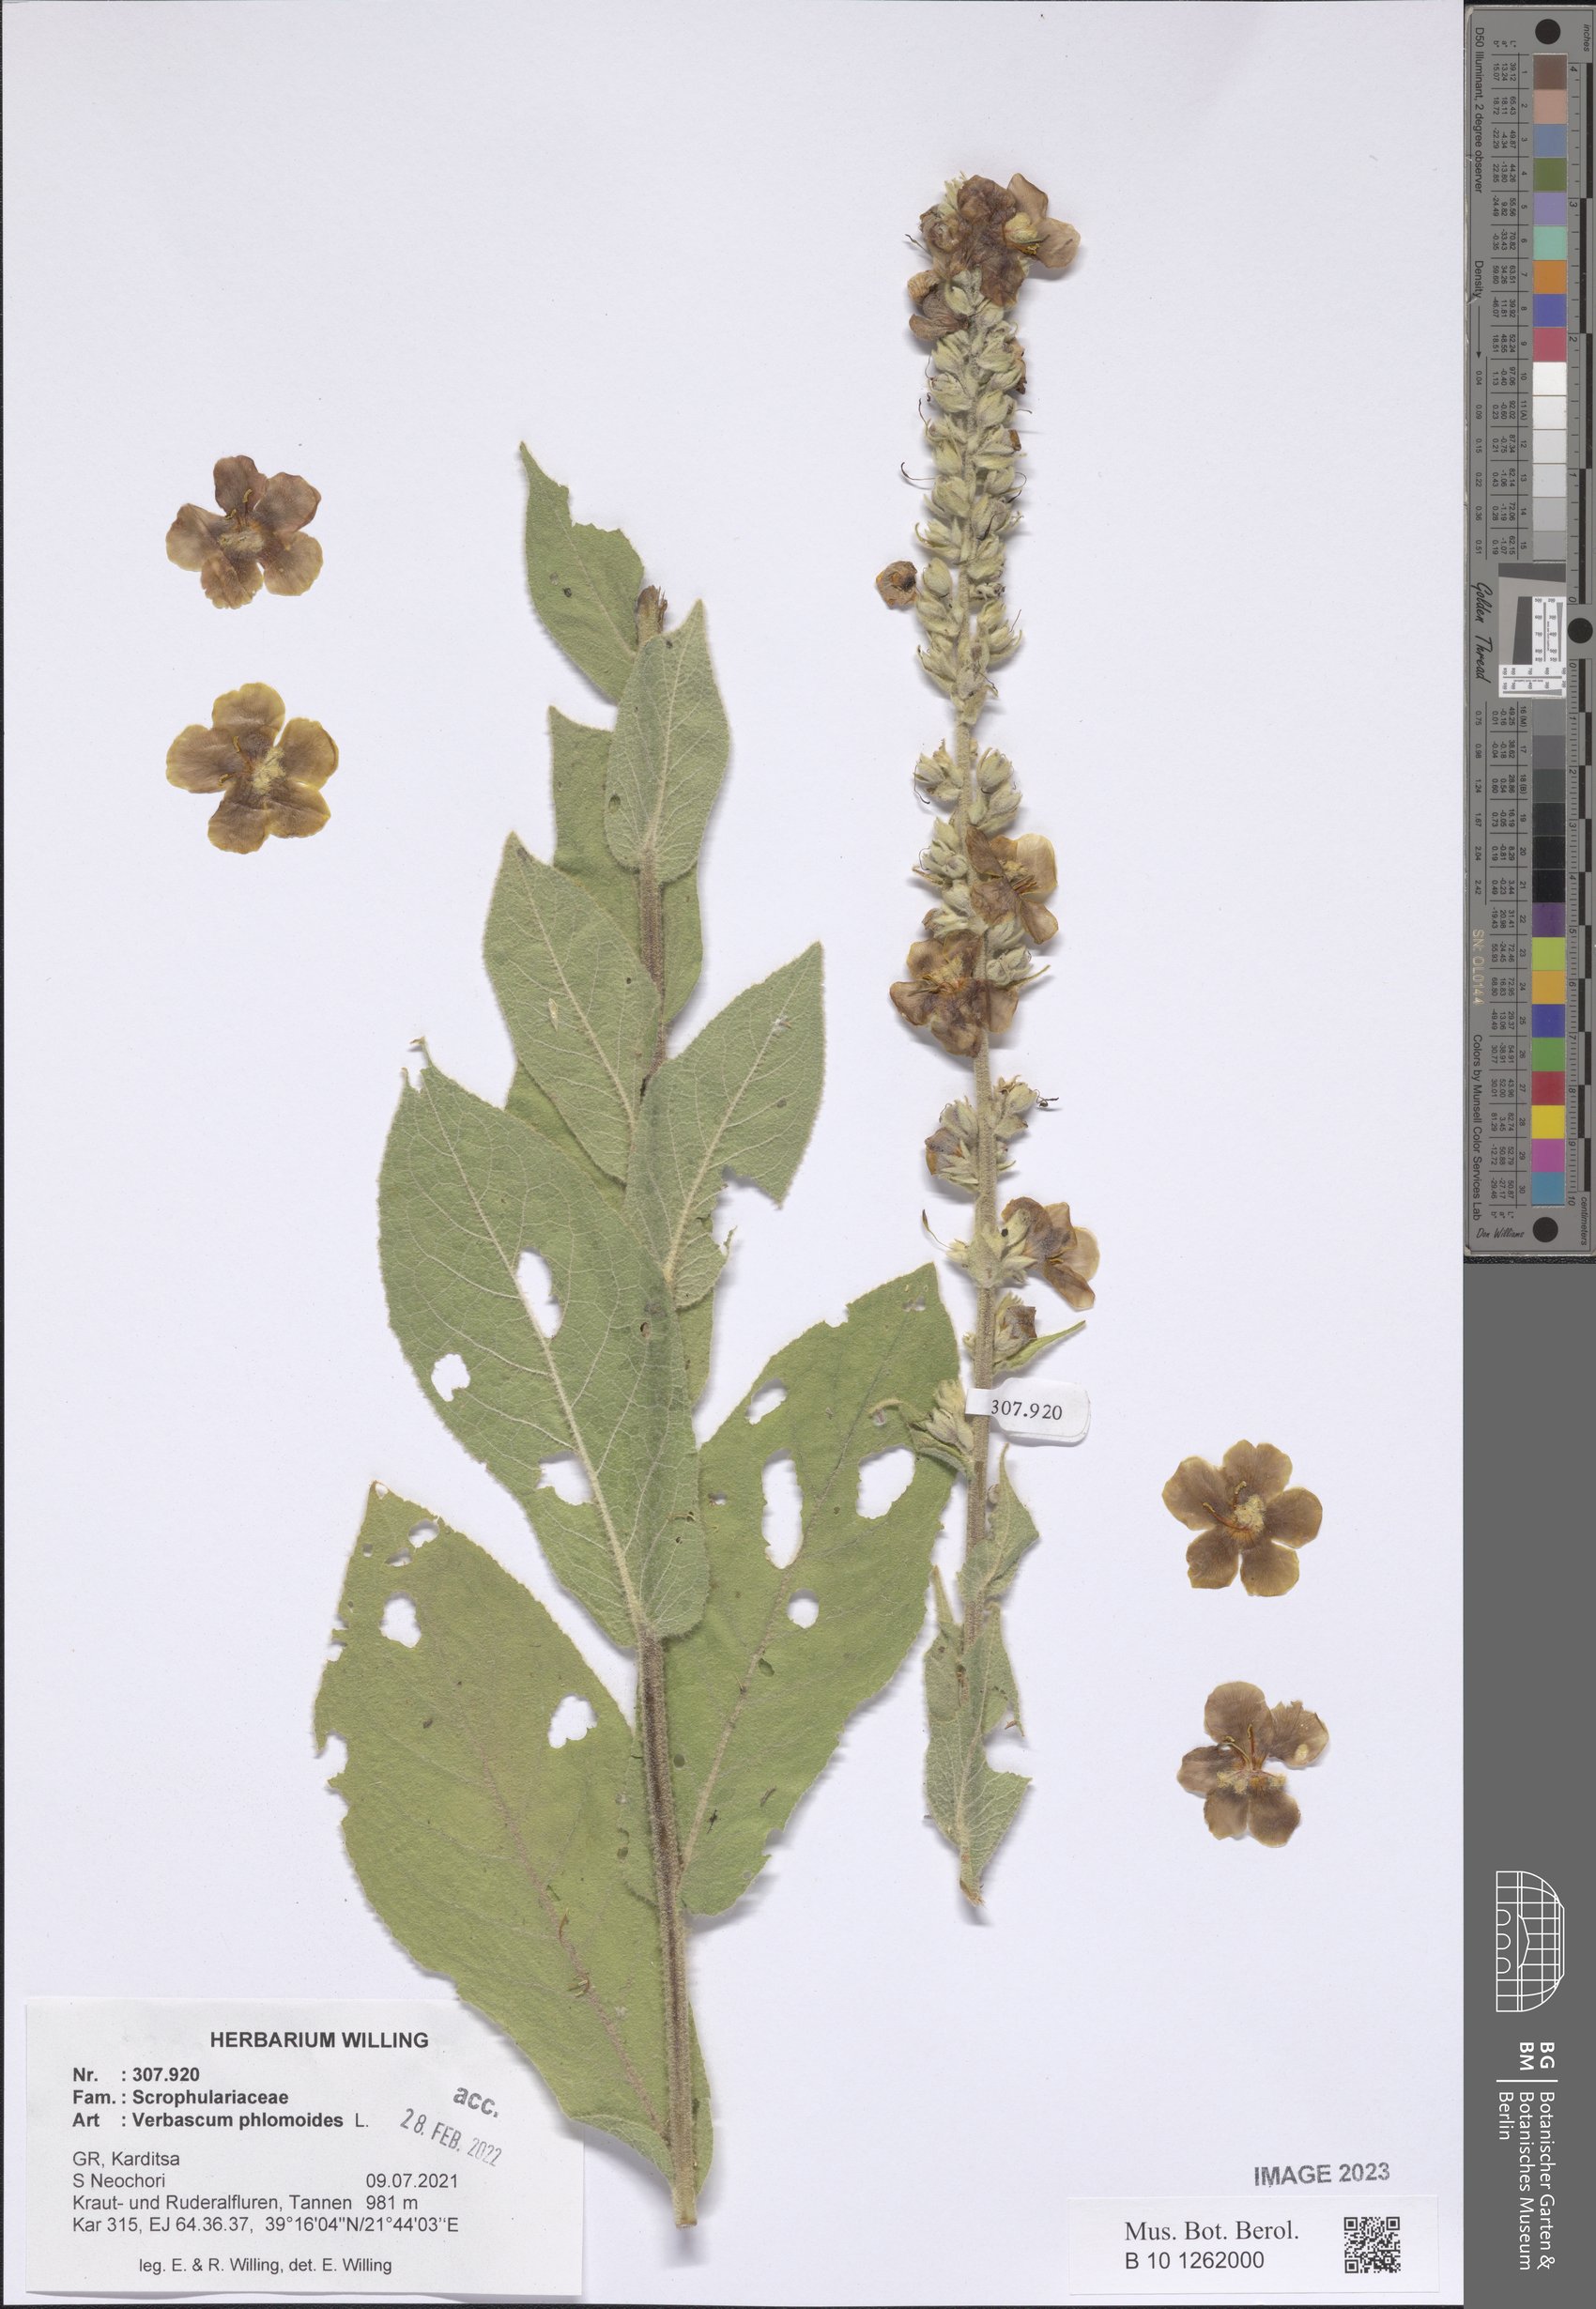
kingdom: Plantae
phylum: Tracheophyta
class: Magnoliopsida
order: Lamiales
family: Scrophulariaceae
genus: Verbascum
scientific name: Verbascum phlomoides
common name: Orange mullein
